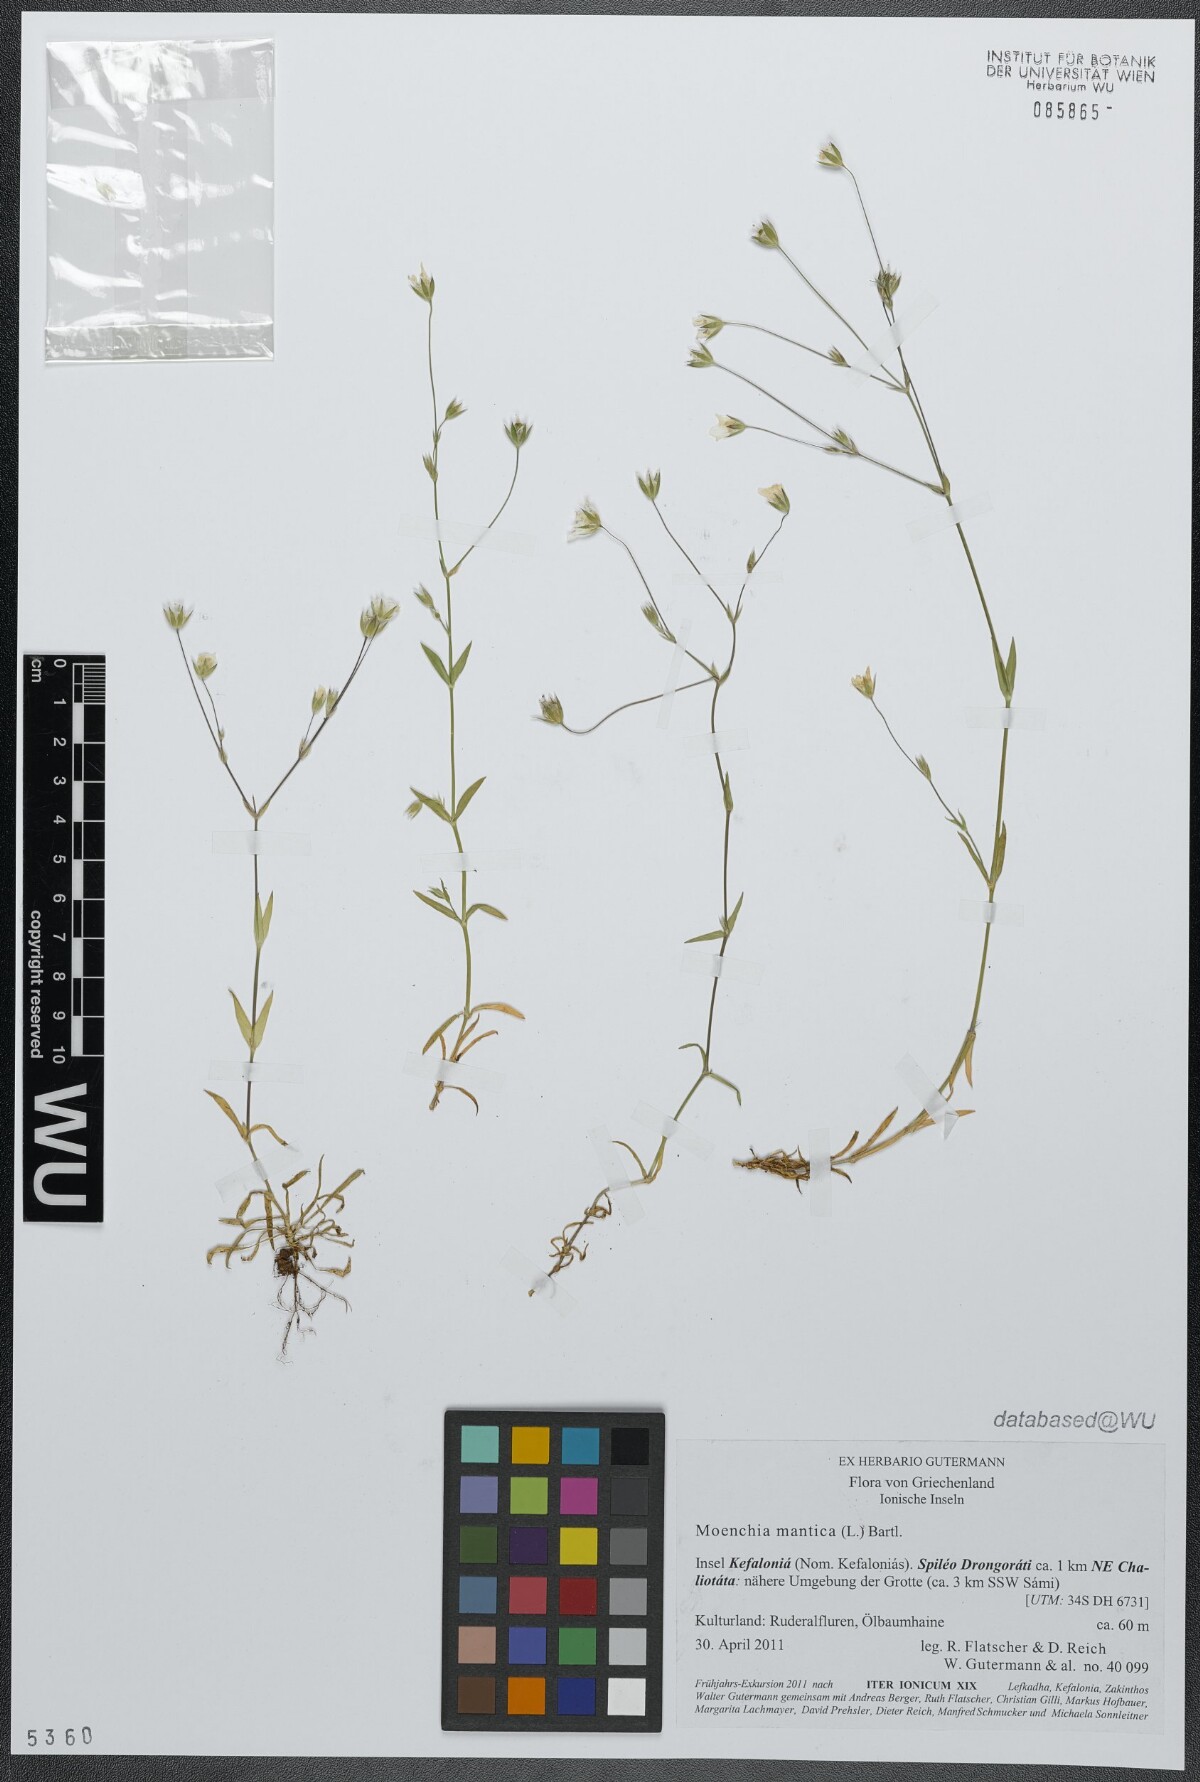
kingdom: Plantae
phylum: Tracheophyta
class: Magnoliopsida
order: Caryophyllales
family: Caryophyllaceae
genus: Moenchia
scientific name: Moenchia mantica
